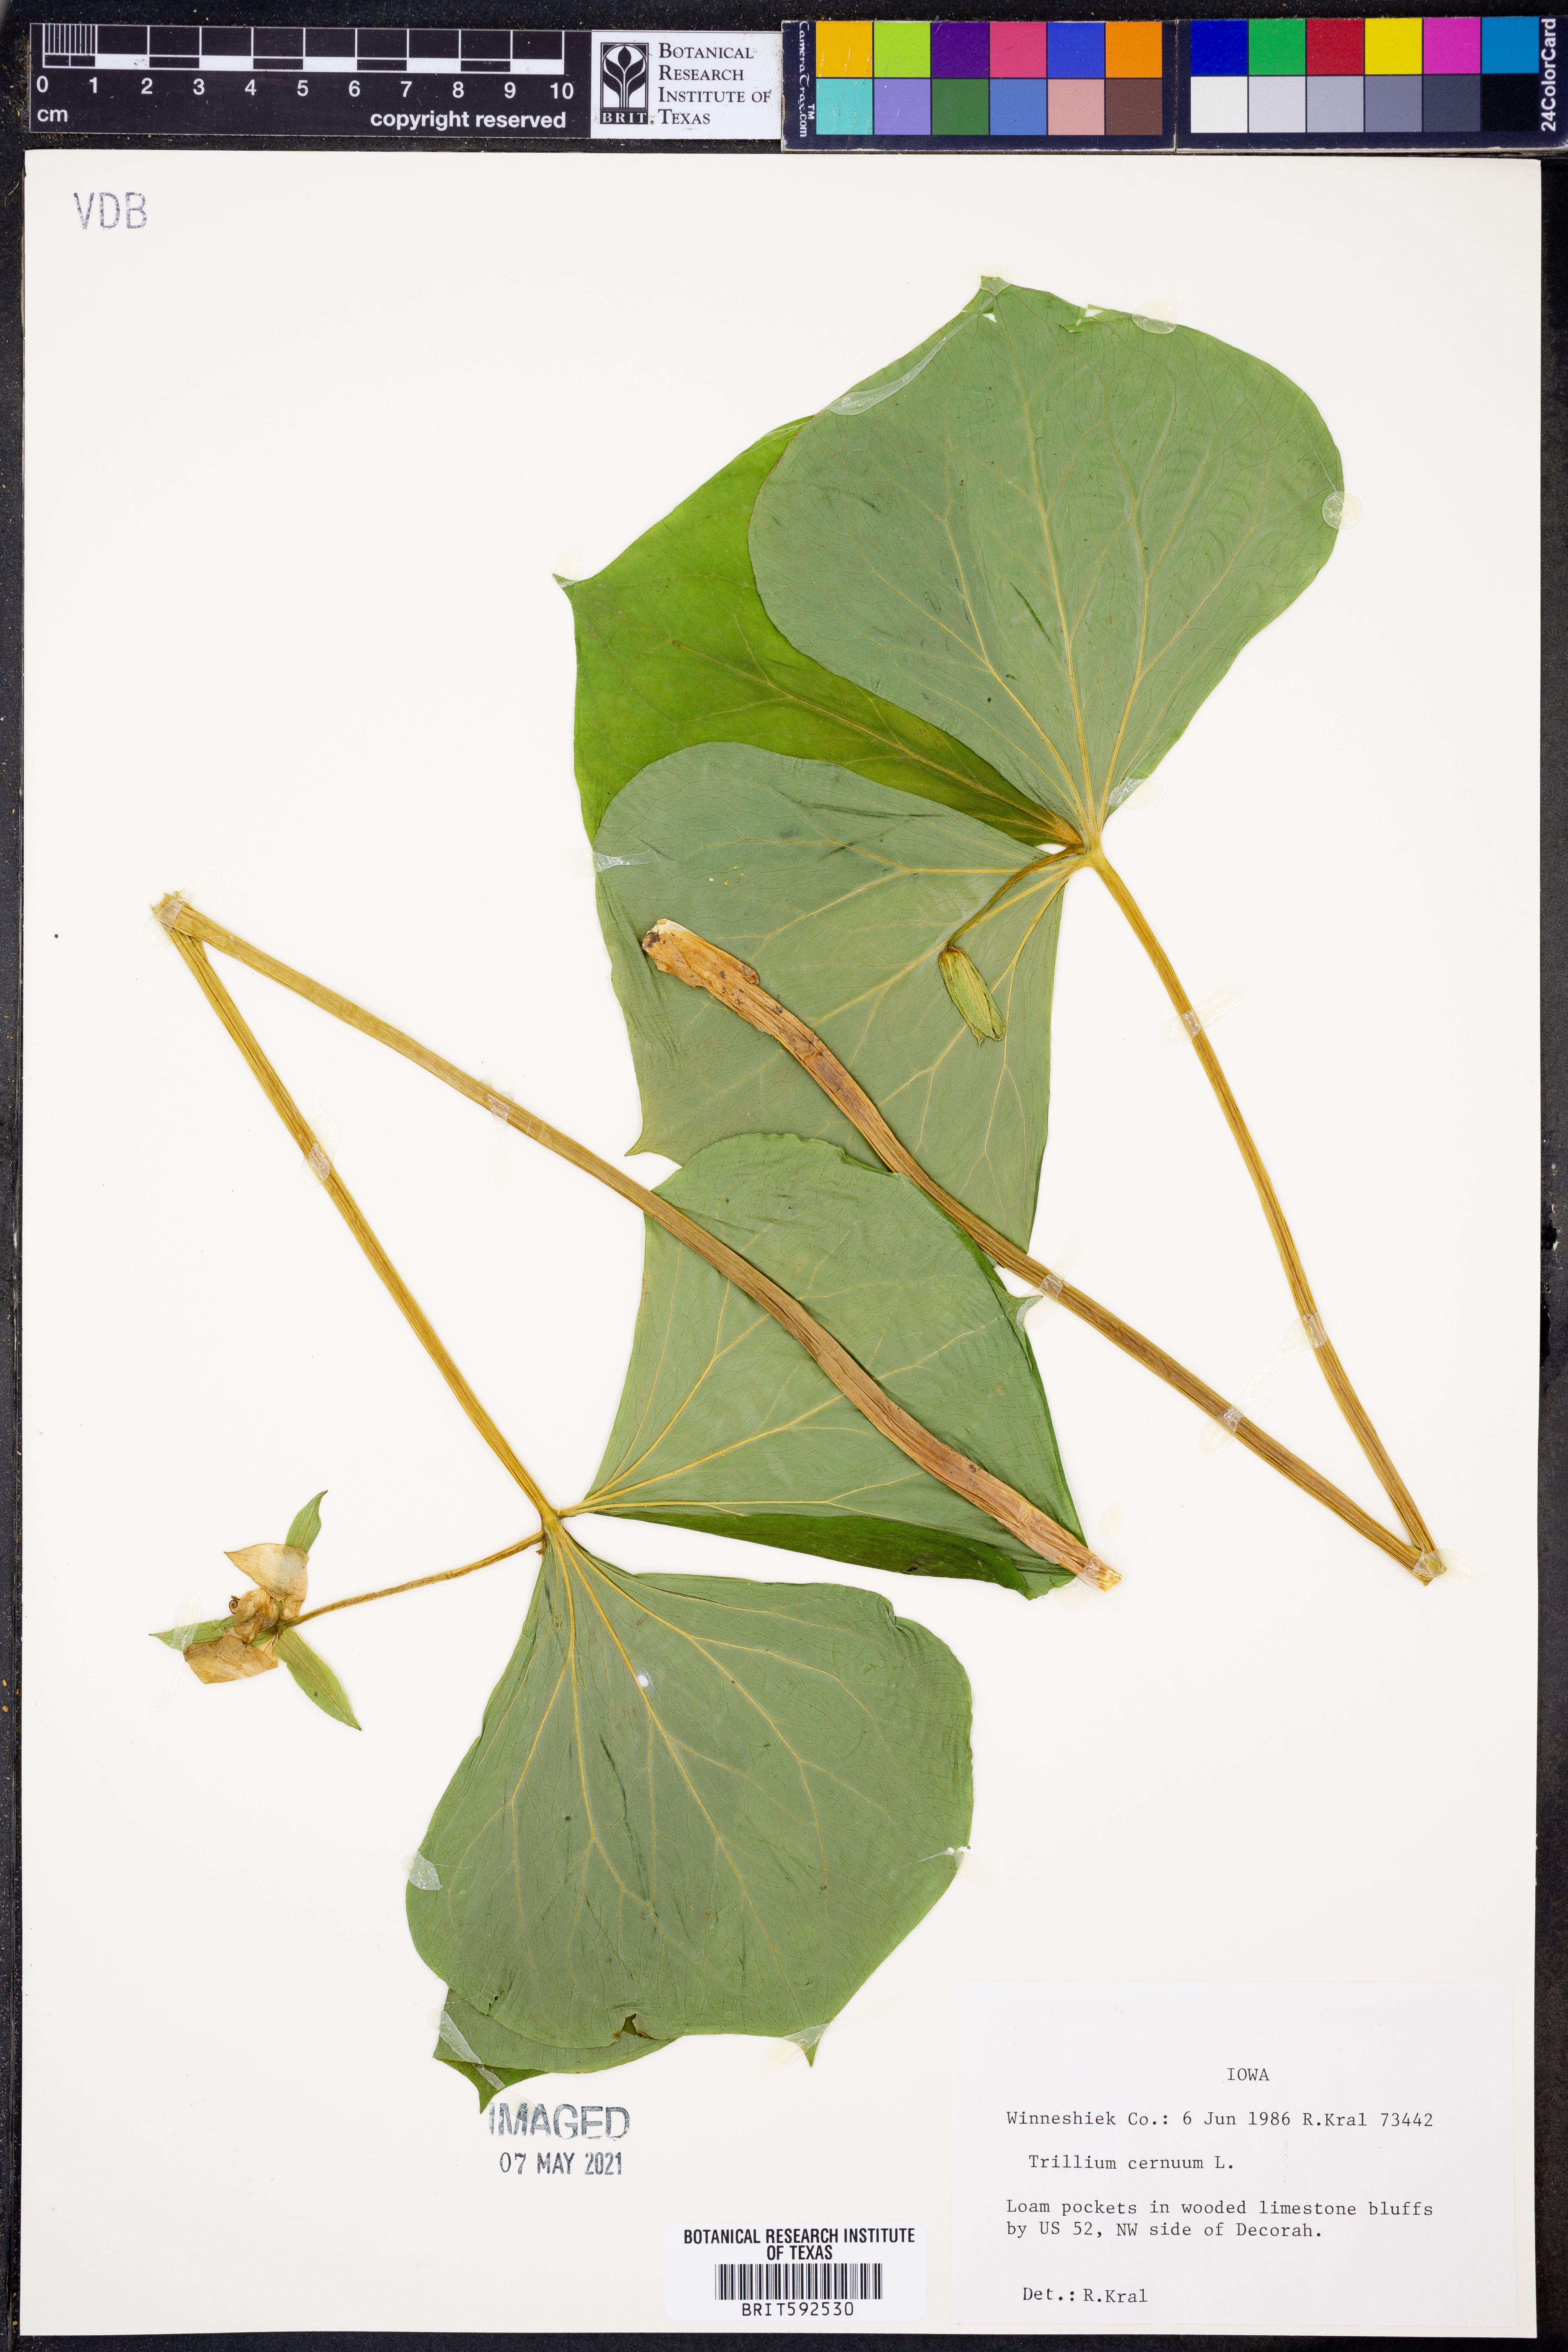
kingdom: Plantae
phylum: Tracheophyta
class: Liliopsida
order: Liliales
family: Melanthiaceae
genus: Trillium
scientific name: Trillium cernuum
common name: Nodding trillium
